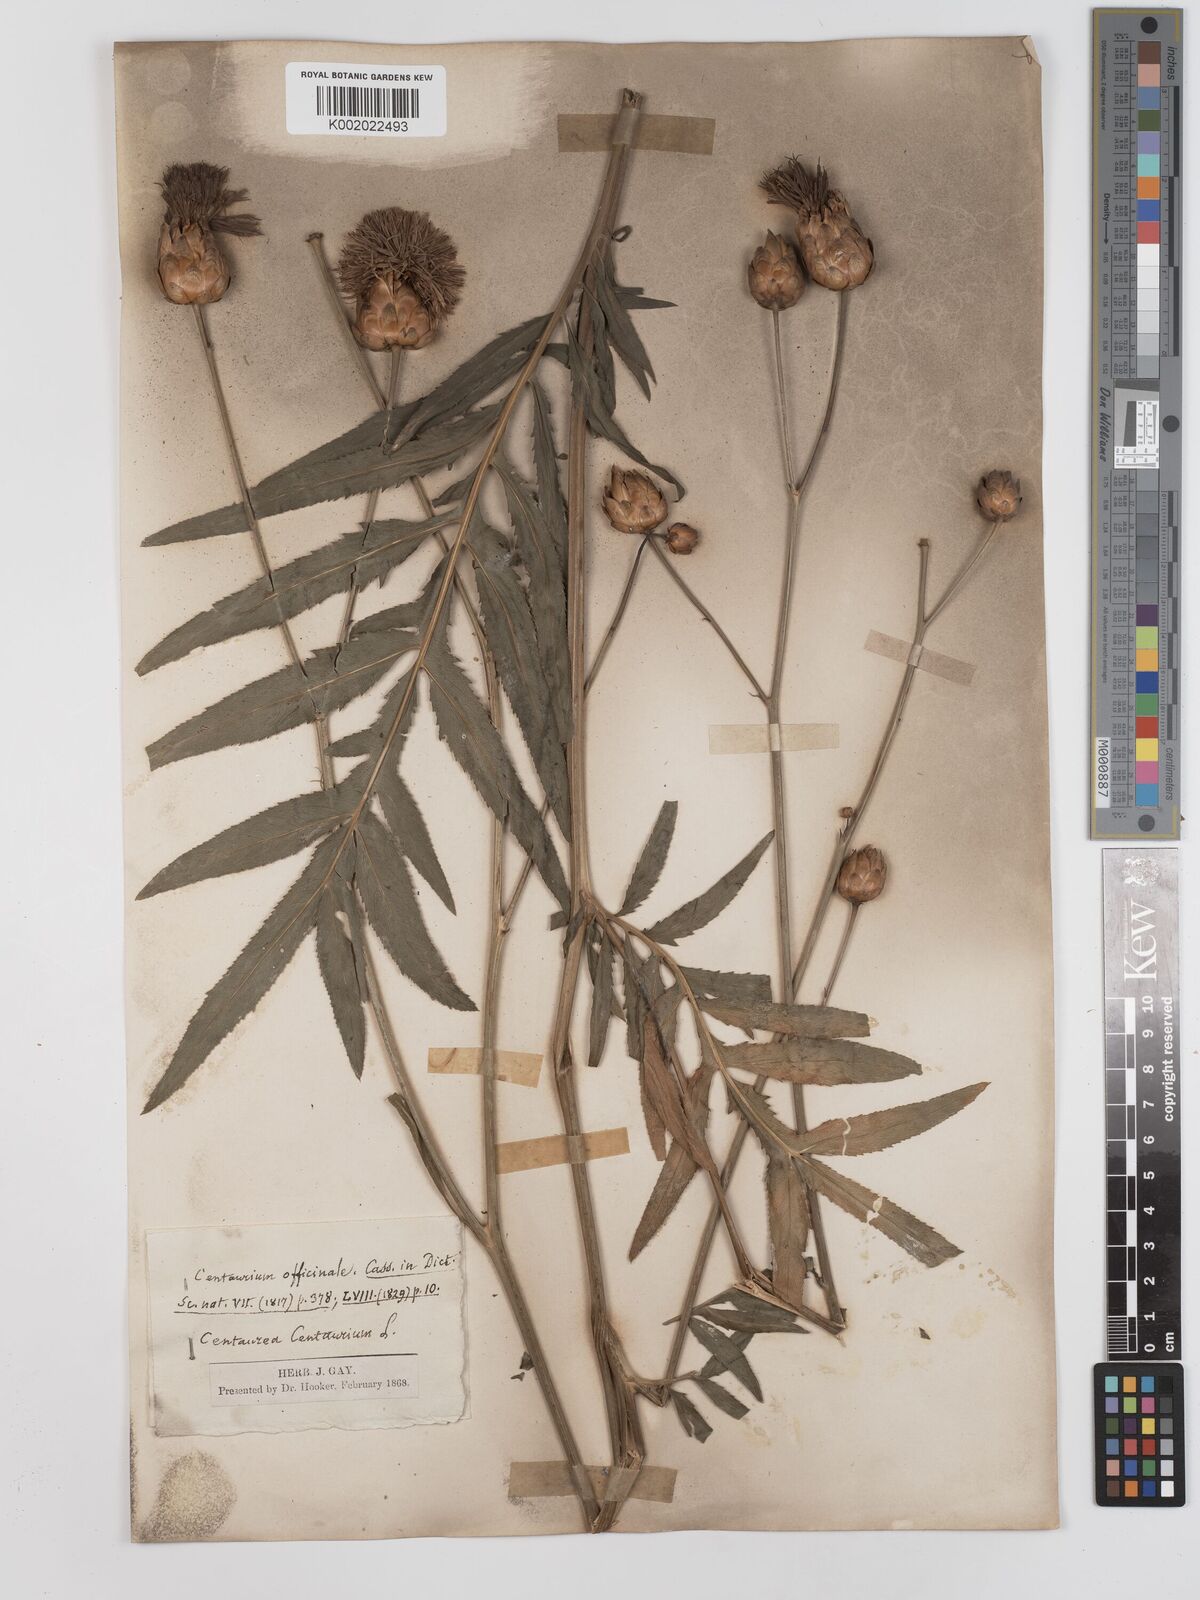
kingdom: Plantae
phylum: Tracheophyta
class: Magnoliopsida
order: Asterales
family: Asteraceae
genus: Rhaponticoides
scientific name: Rhaponticoides centaurium
